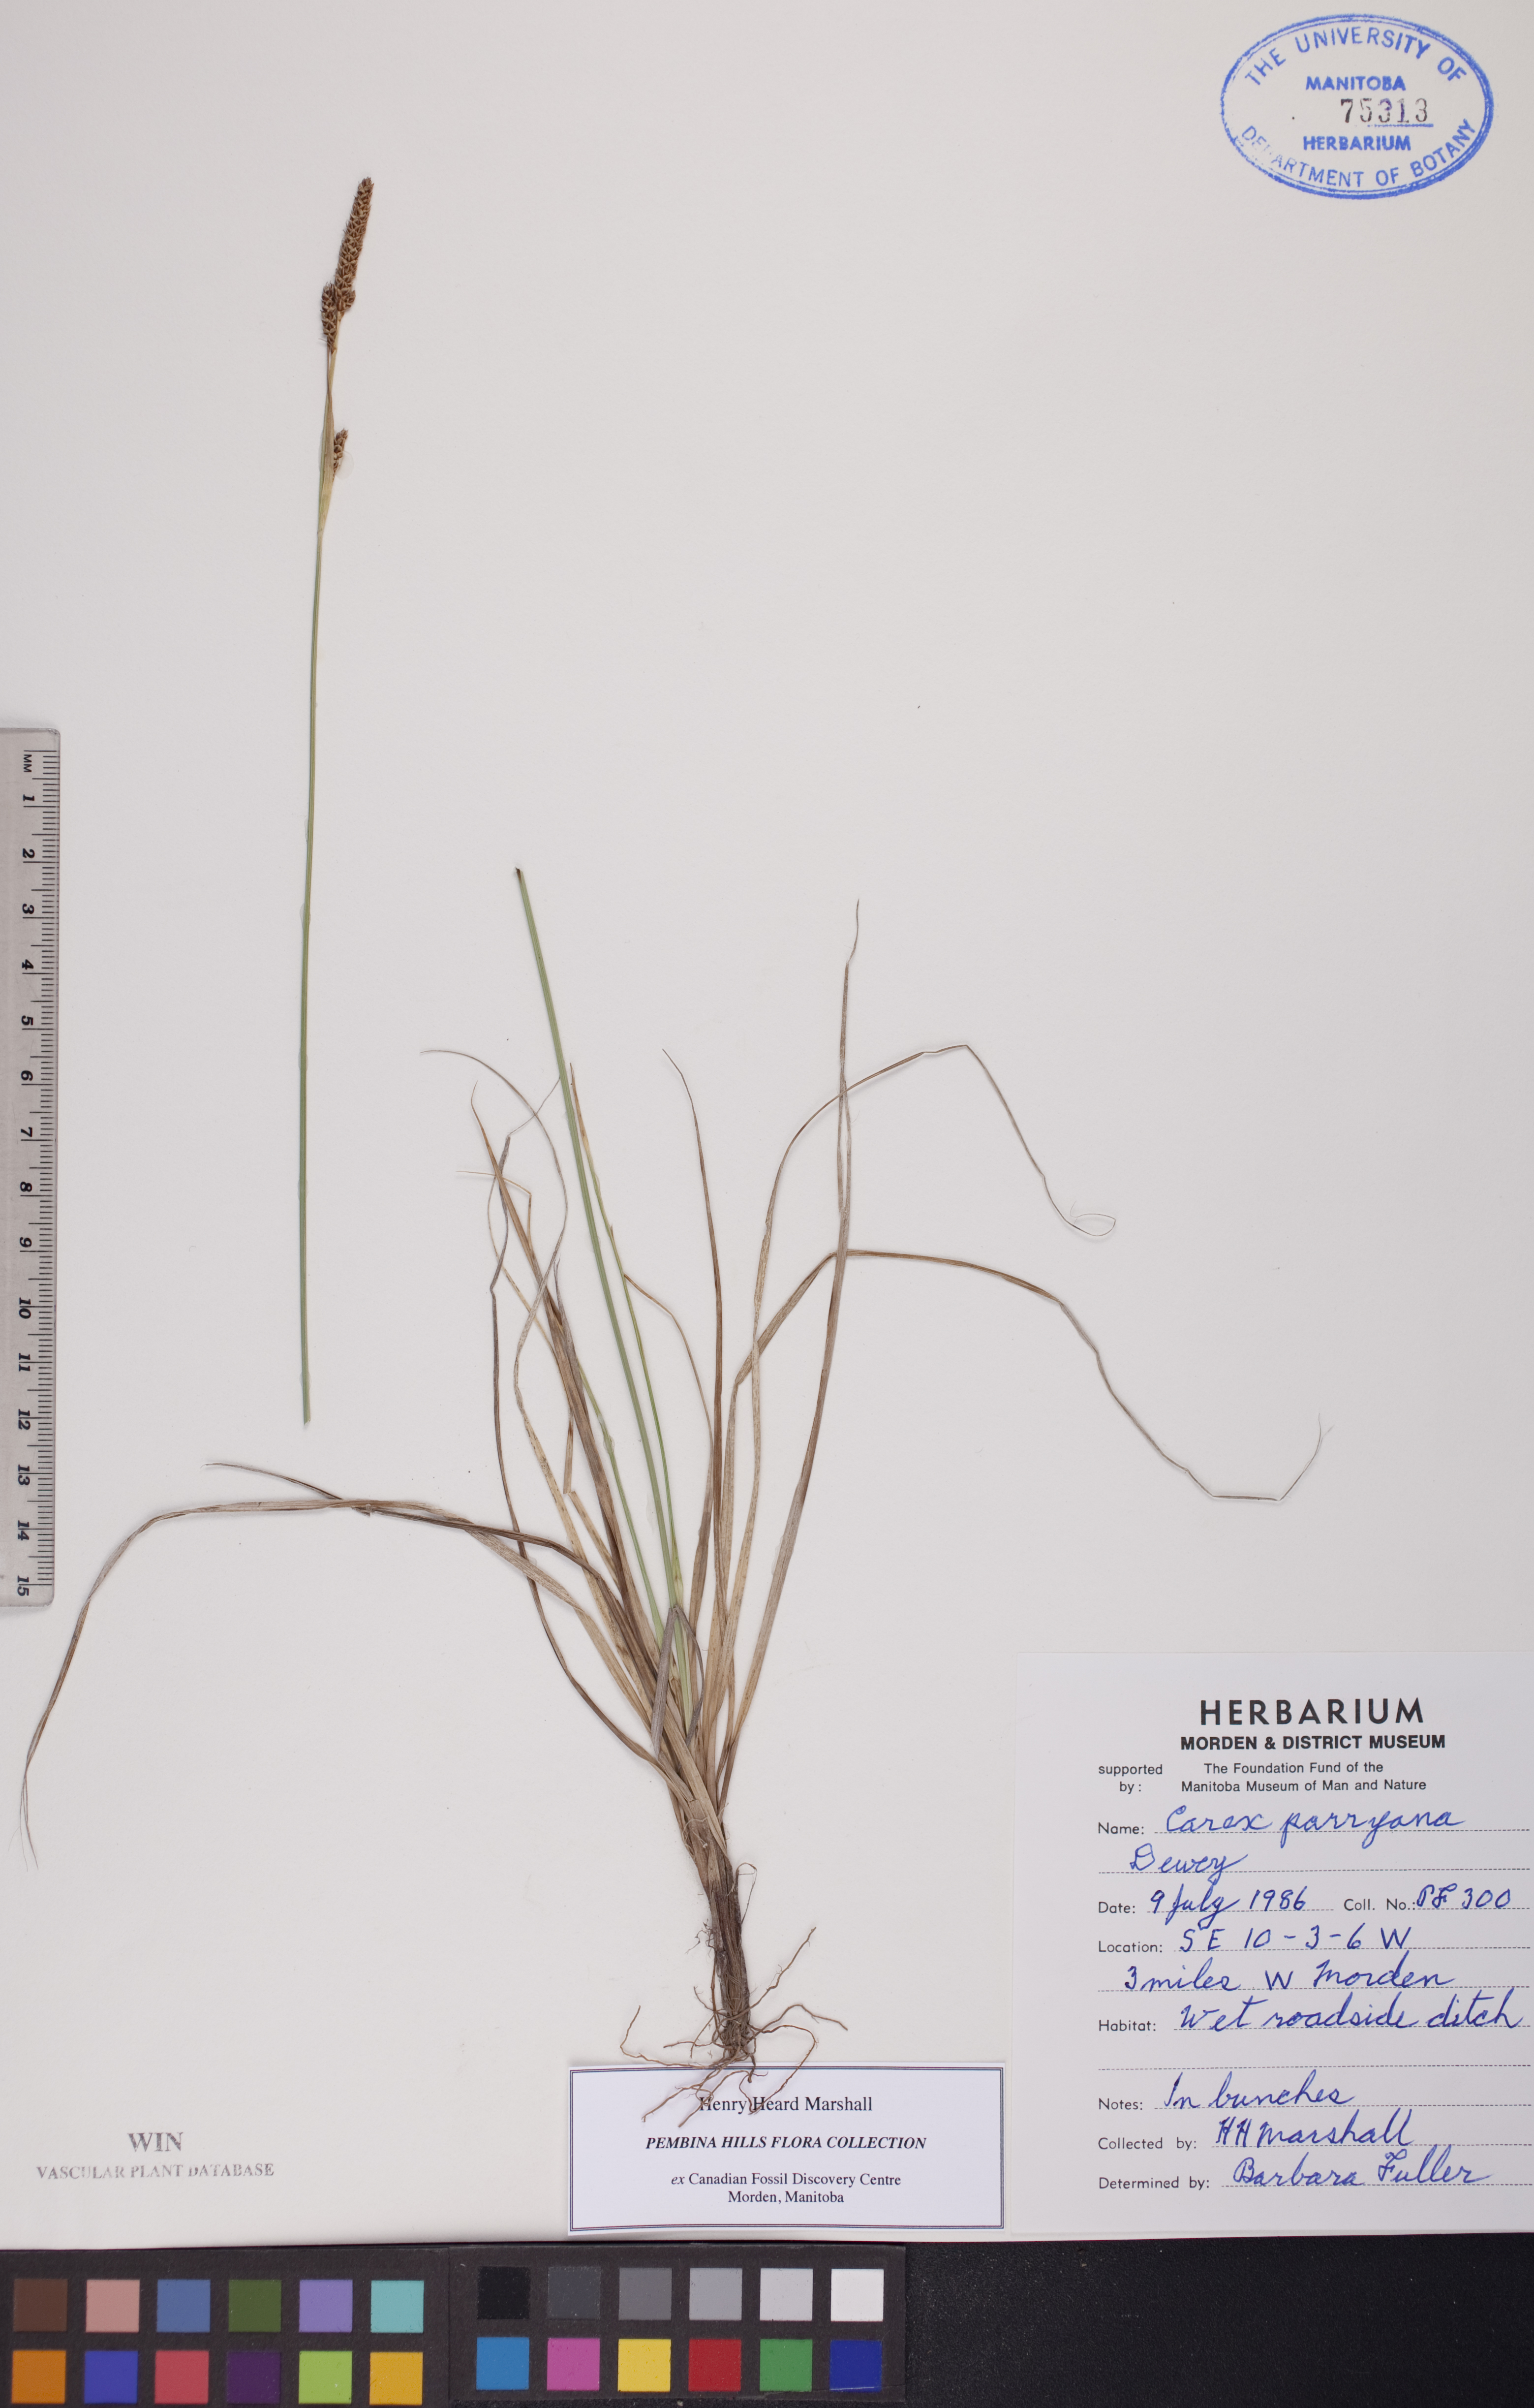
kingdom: Plantae
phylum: Tracheophyta
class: Liliopsida
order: Poales
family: Cyperaceae
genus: Carex
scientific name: Carex parryana
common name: Parry's sedge
